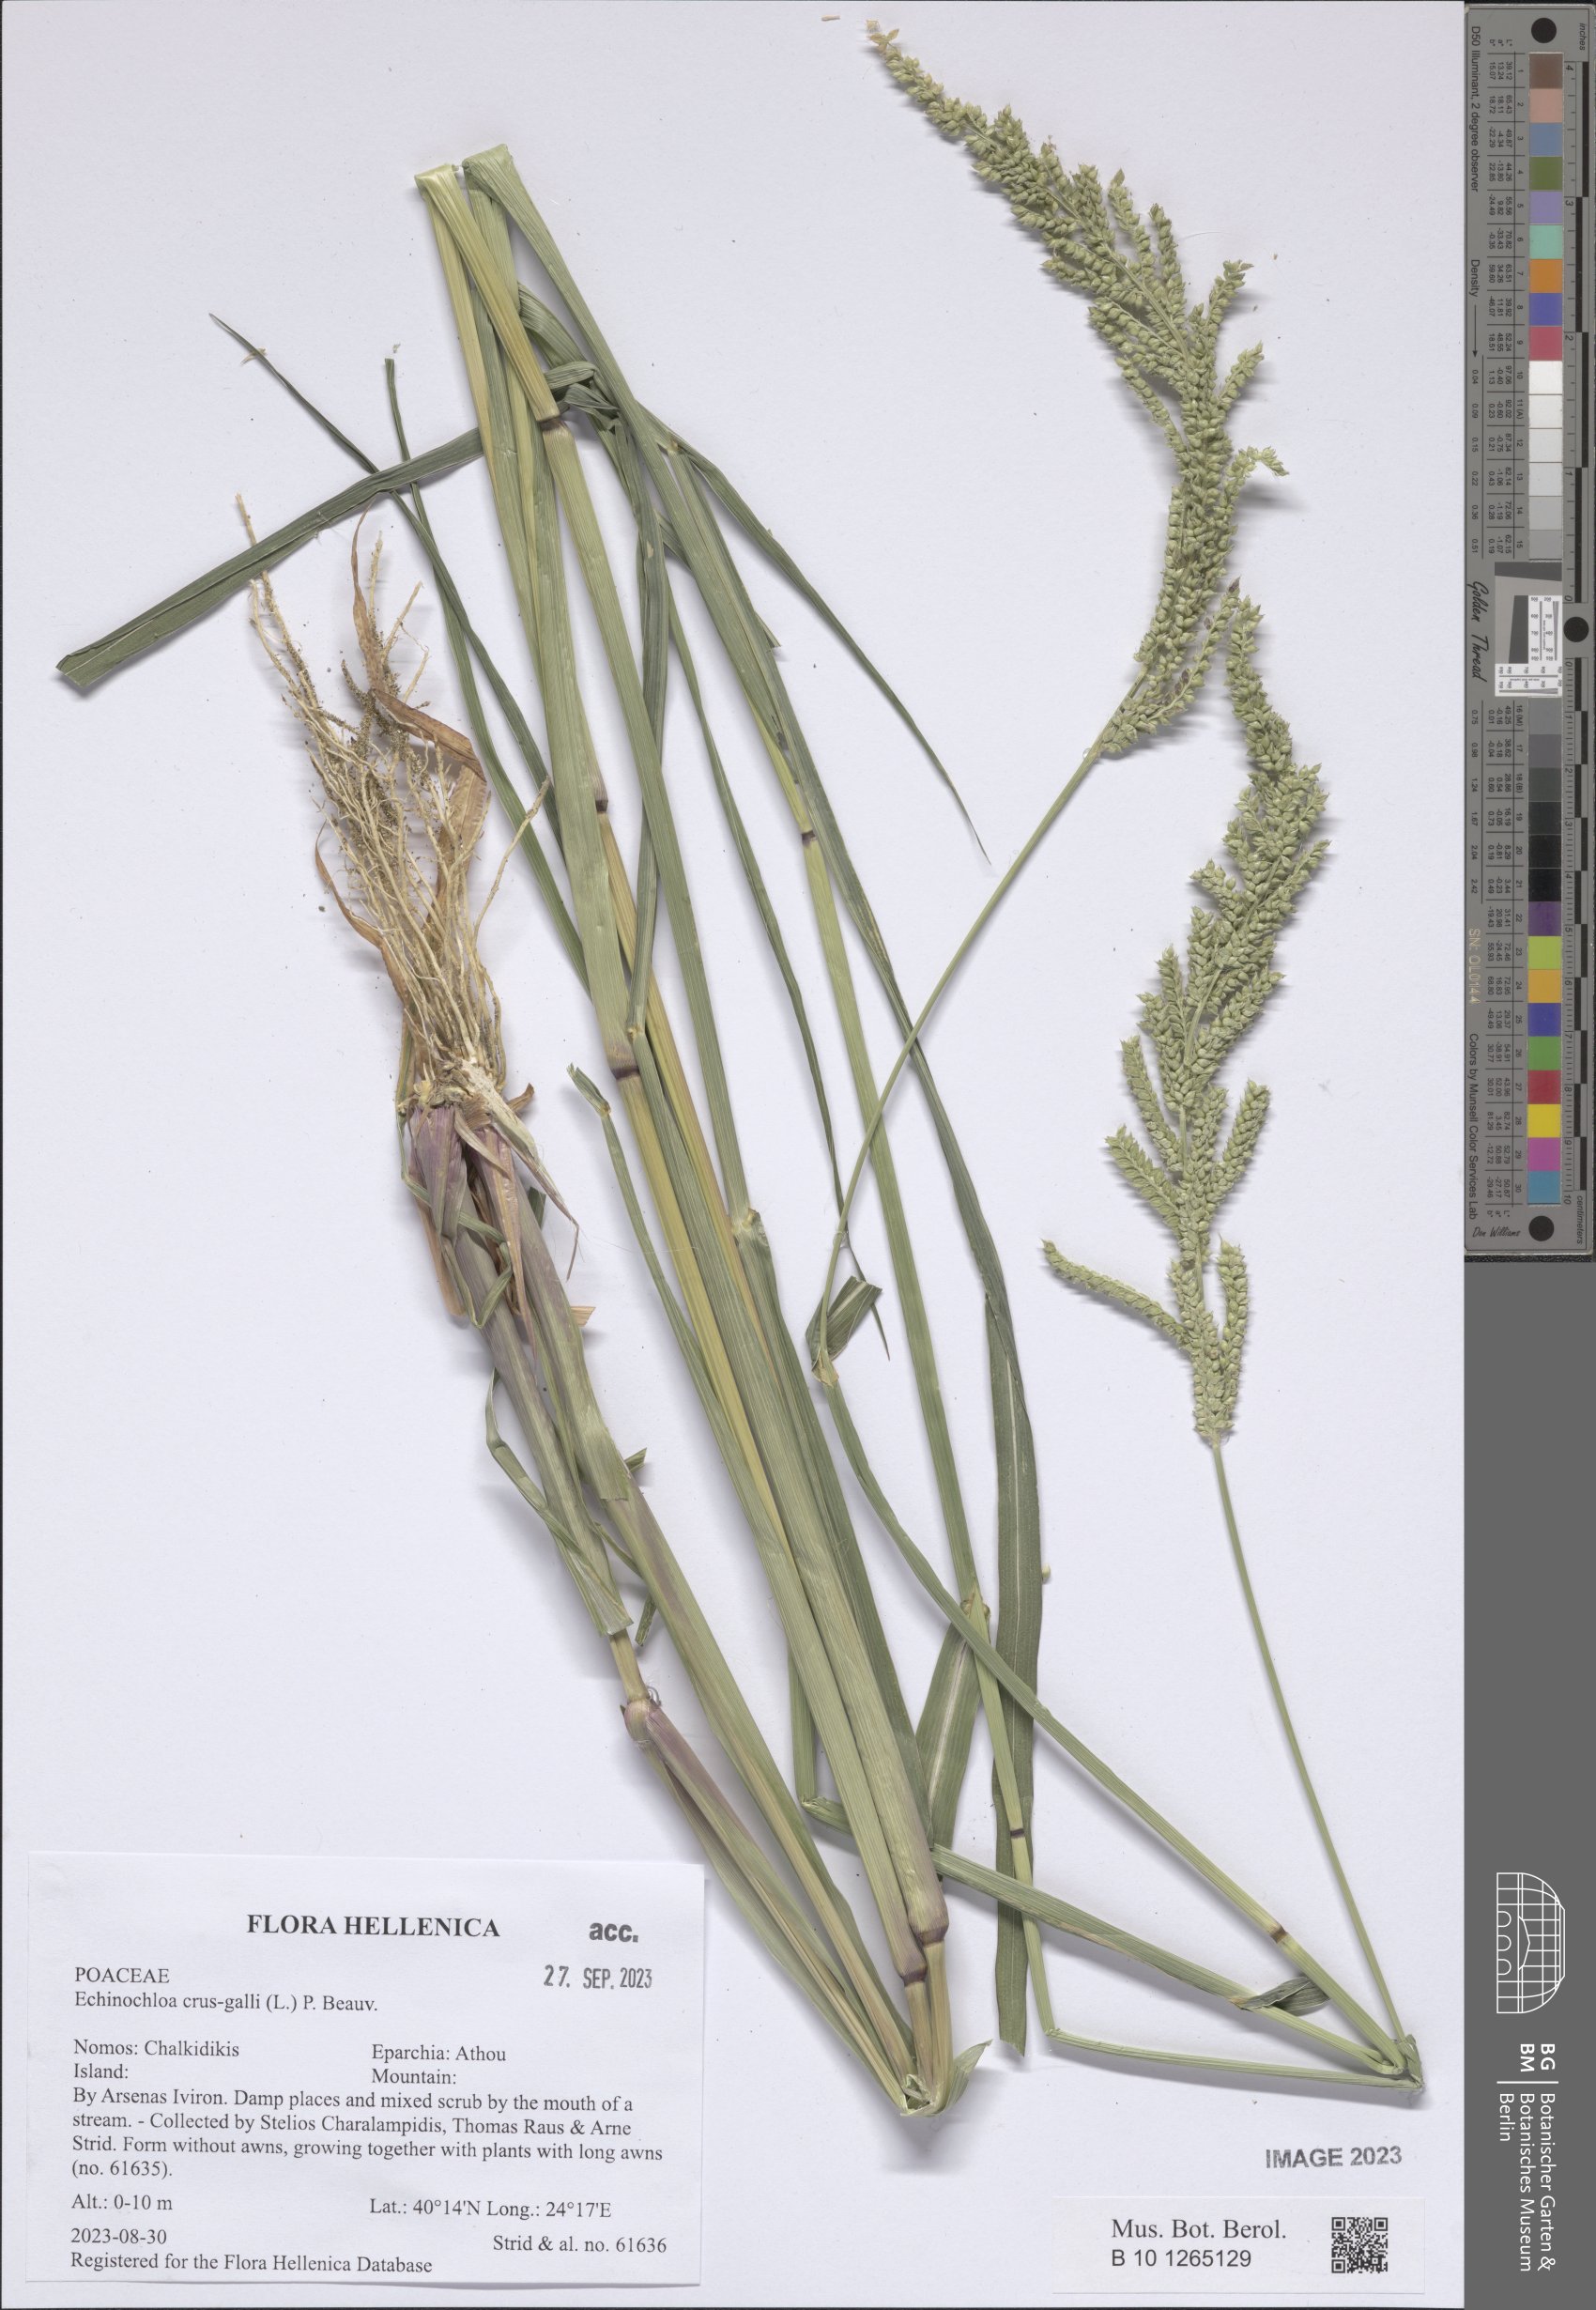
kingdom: Plantae
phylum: Tracheophyta
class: Liliopsida
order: Poales
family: Poaceae
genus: Echinochloa
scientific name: Echinochloa crus-galli
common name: Cockspur
